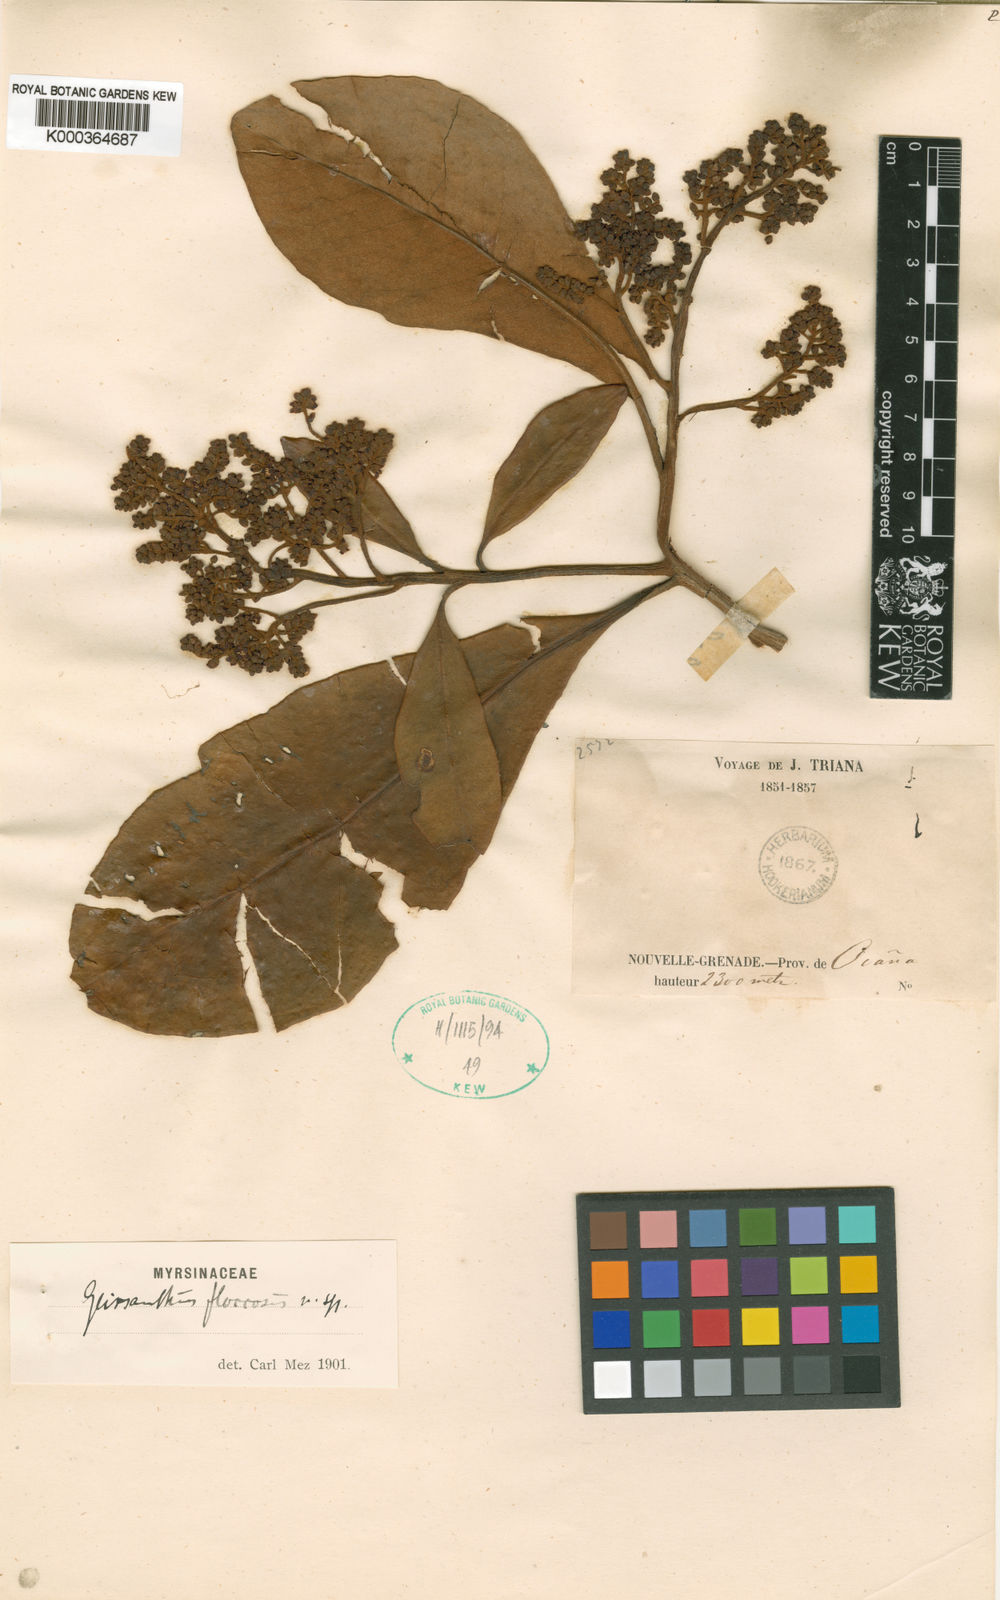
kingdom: Plantae
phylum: Tracheophyta
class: Magnoliopsida
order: Ericales
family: Primulaceae
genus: Geissanthus
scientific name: Geissanthus floccosus
